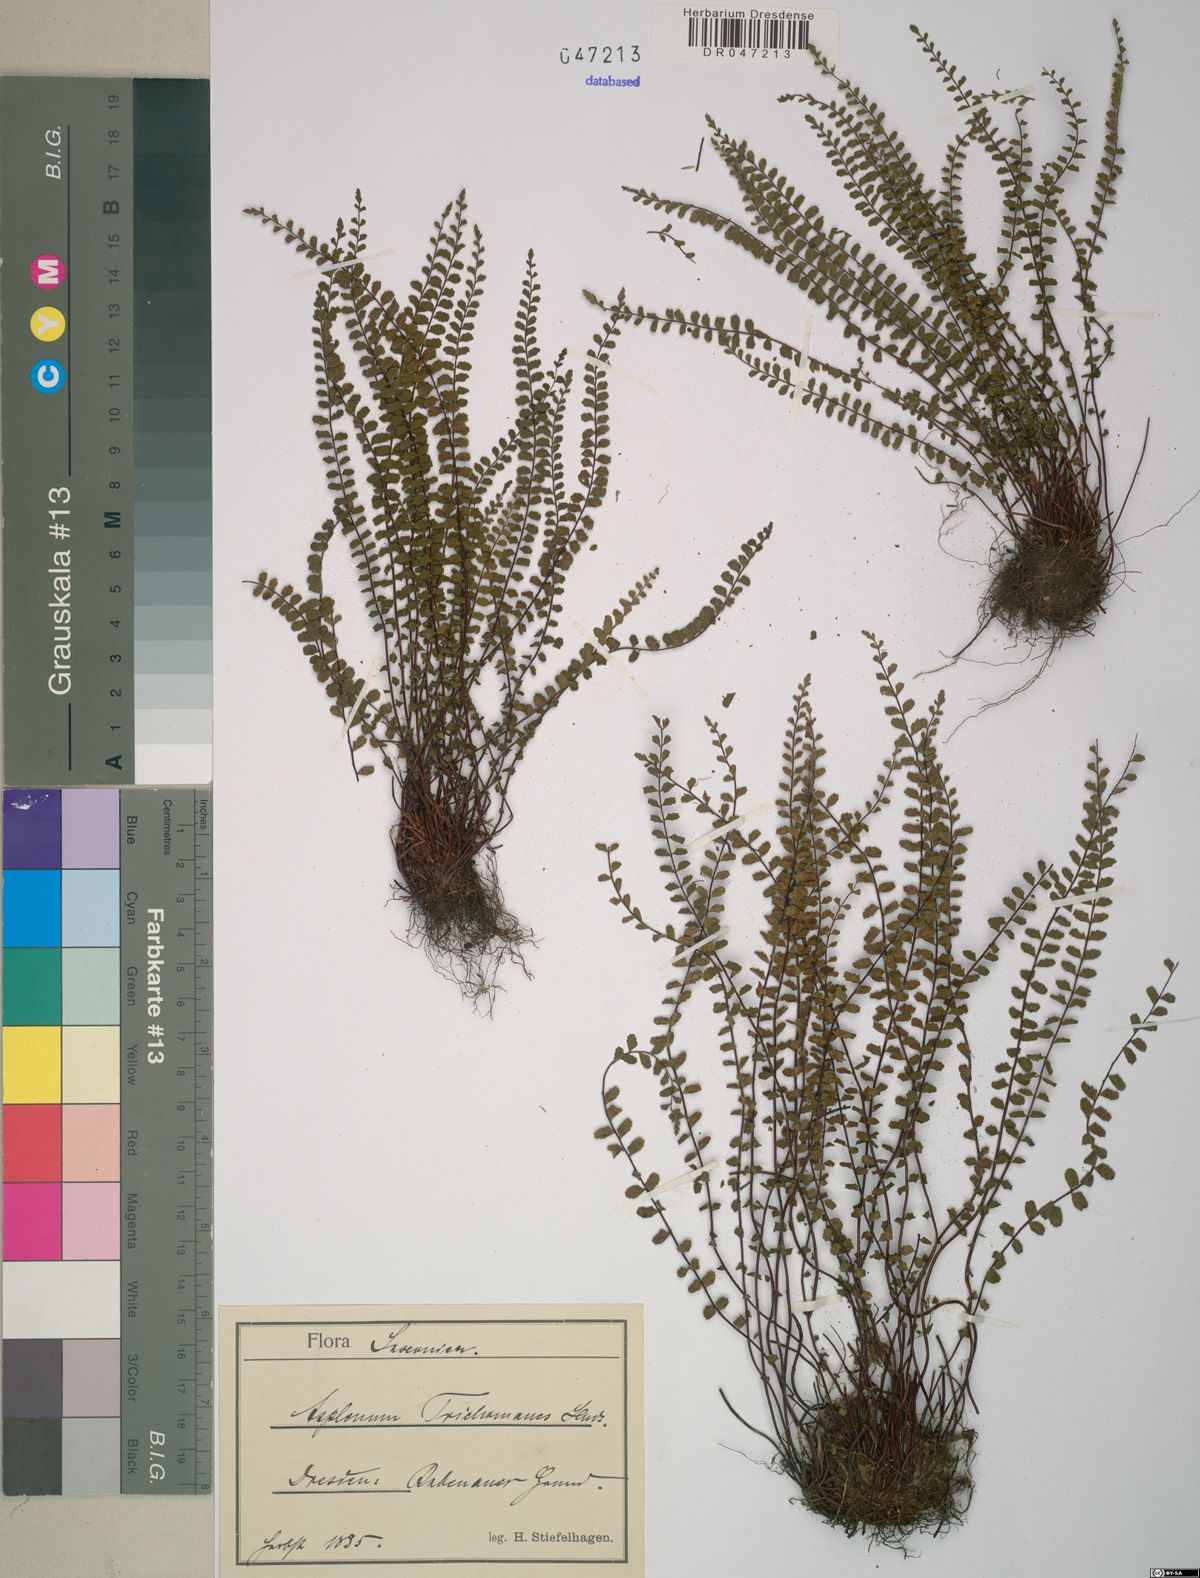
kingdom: Plantae
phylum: Tracheophyta
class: Polypodiopsida
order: Polypodiales
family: Aspleniaceae
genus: Asplenium
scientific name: Asplenium trichomanes
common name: Maidenhair spleenwort
